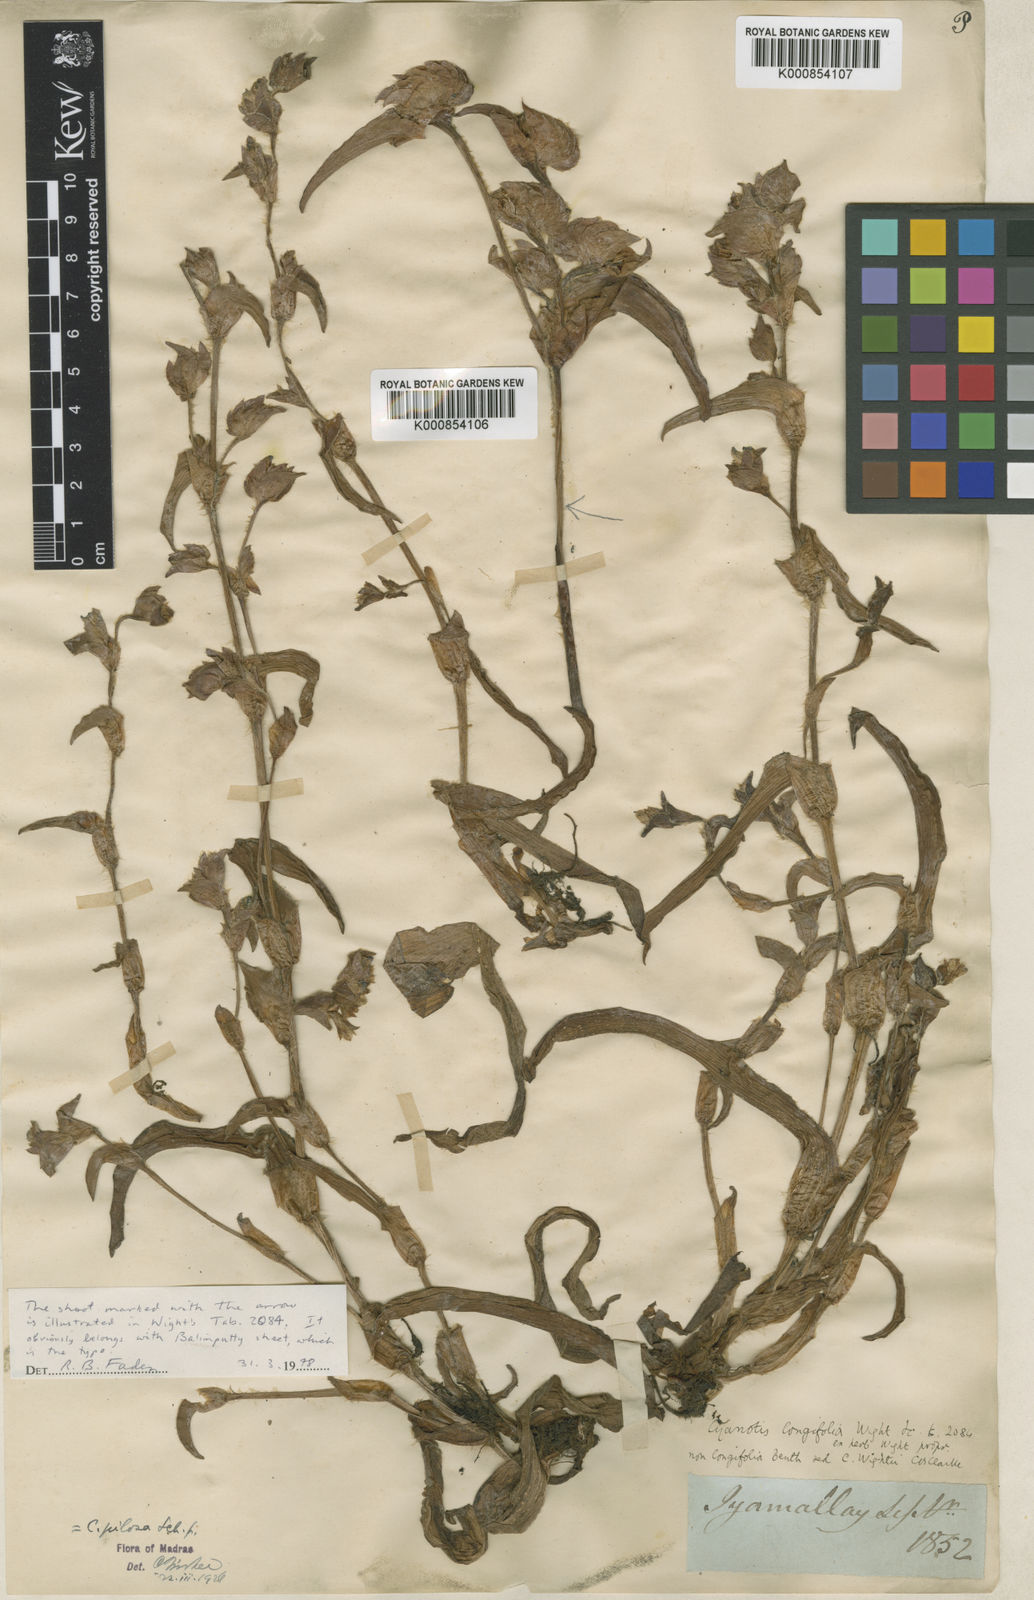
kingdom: Plantae
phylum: Tracheophyta
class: Liliopsida
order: Commelinales
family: Commelinaceae
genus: Cyanotis
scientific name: Cyanotis pilosa
